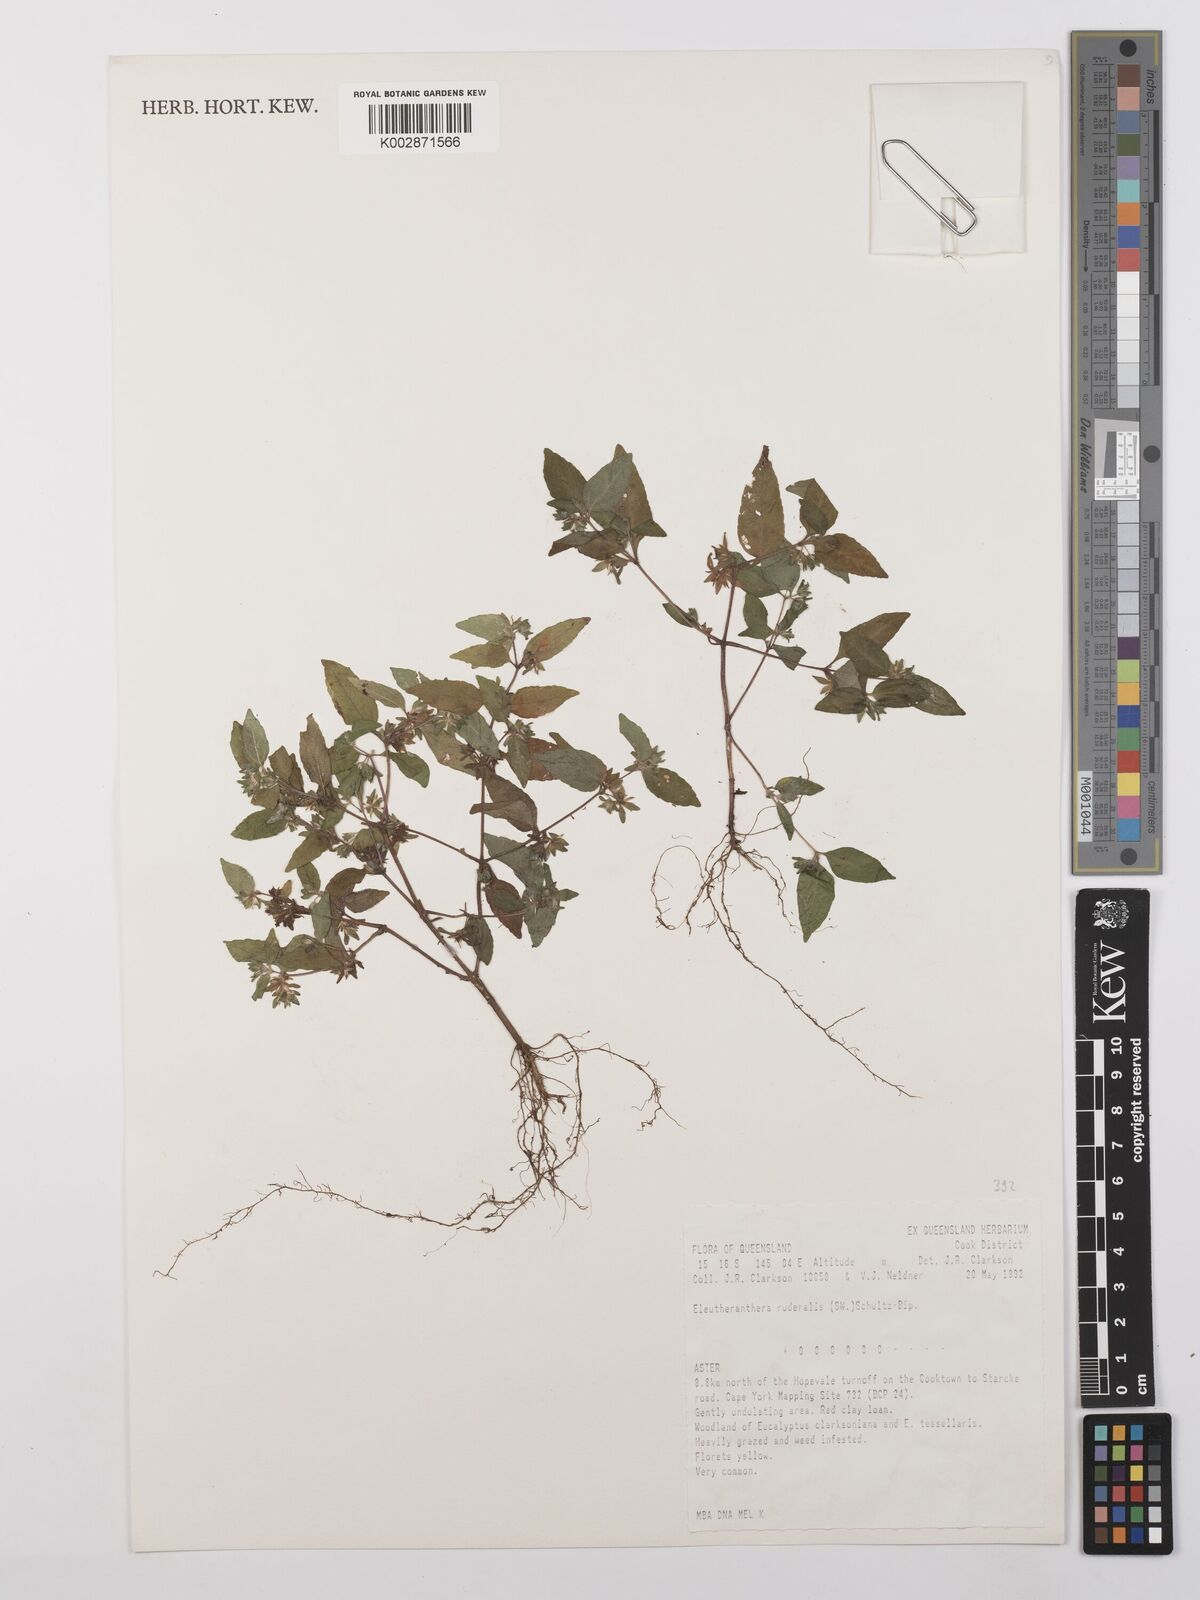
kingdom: Plantae
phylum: Tracheophyta
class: Magnoliopsida
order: Asterales
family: Asteraceae
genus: Eleutheranthera
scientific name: Eleutheranthera ruderalis
